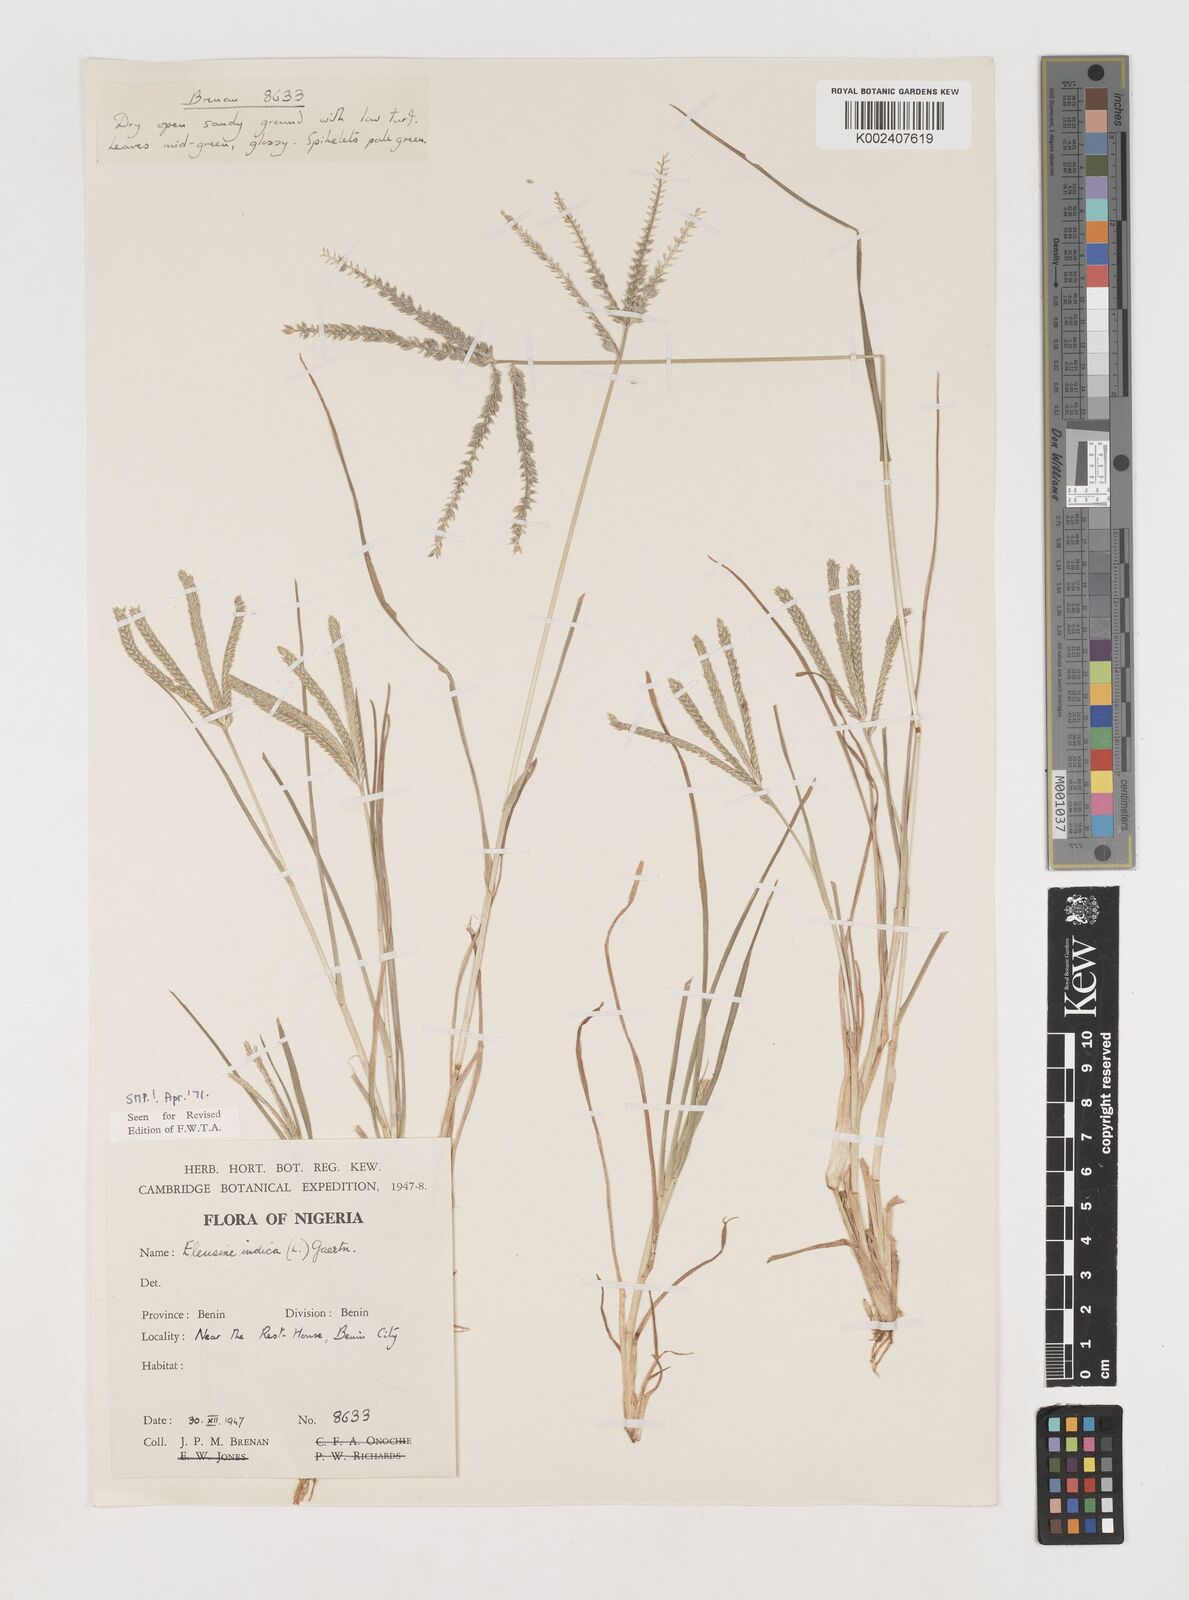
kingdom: Plantae
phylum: Tracheophyta
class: Liliopsida
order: Poales
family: Poaceae
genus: Eleusine
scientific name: Eleusine indica
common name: Yard-grass
